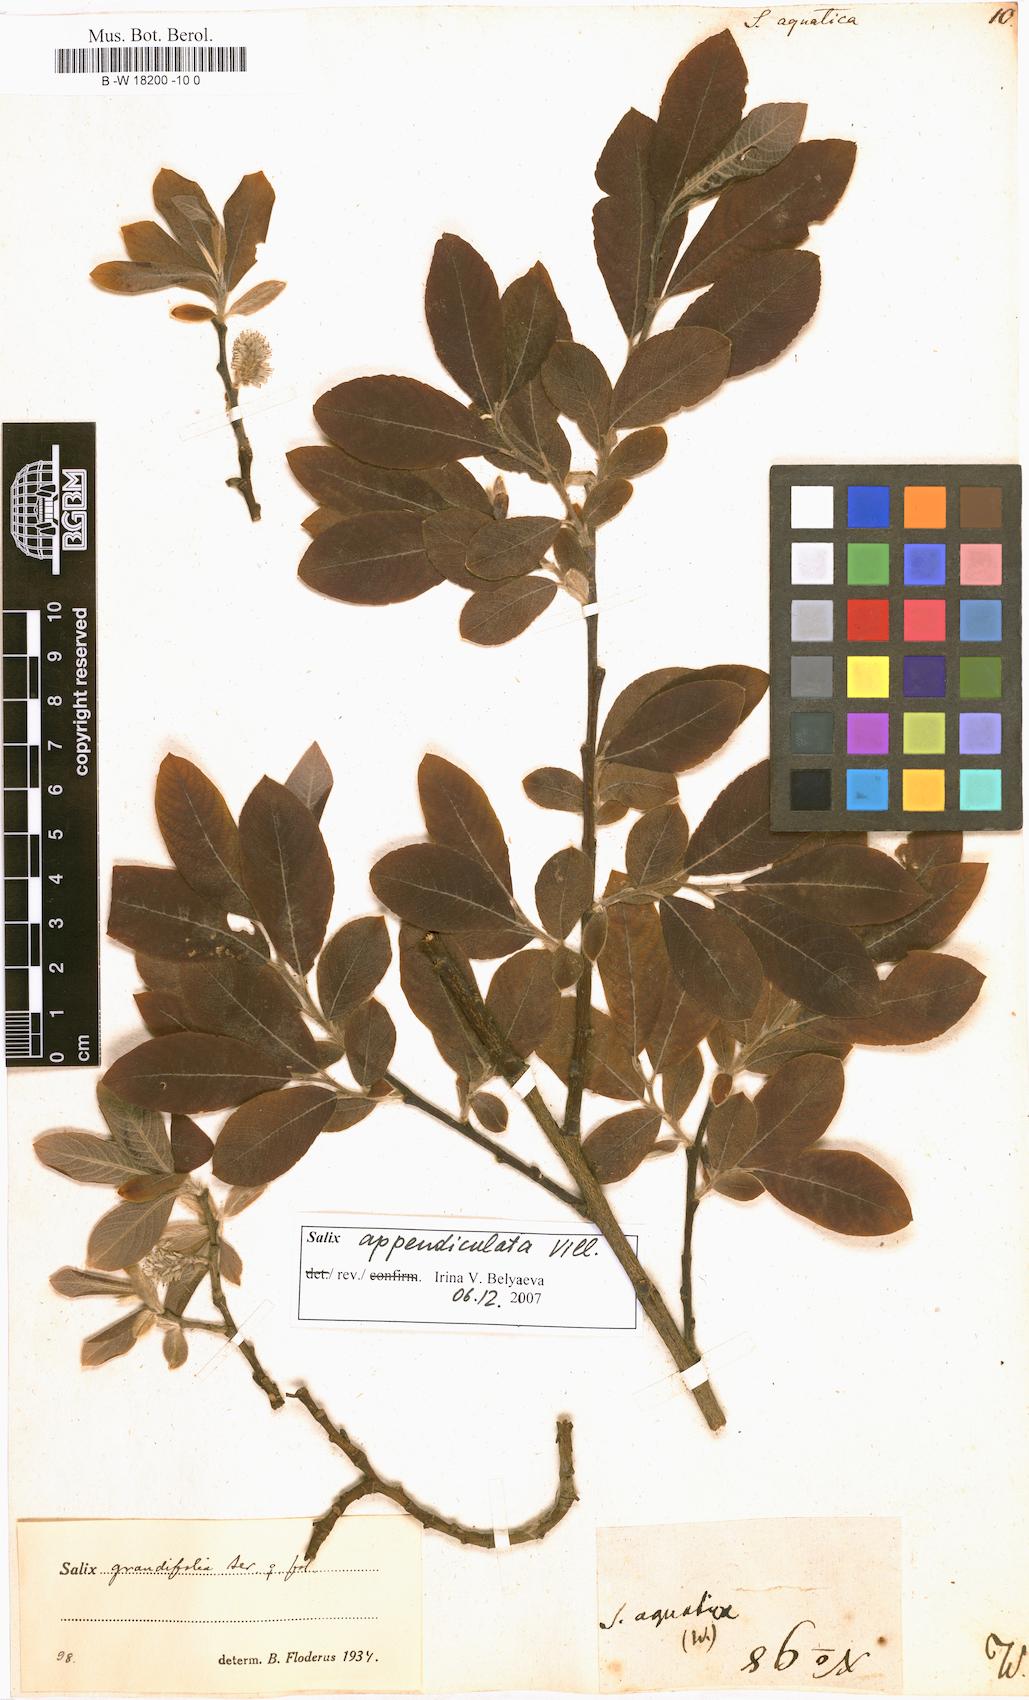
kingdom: Plantae
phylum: Tracheophyta
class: Magnoliopsida
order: Malpighiales
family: Salicaceae
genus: Salix
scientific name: Salix
